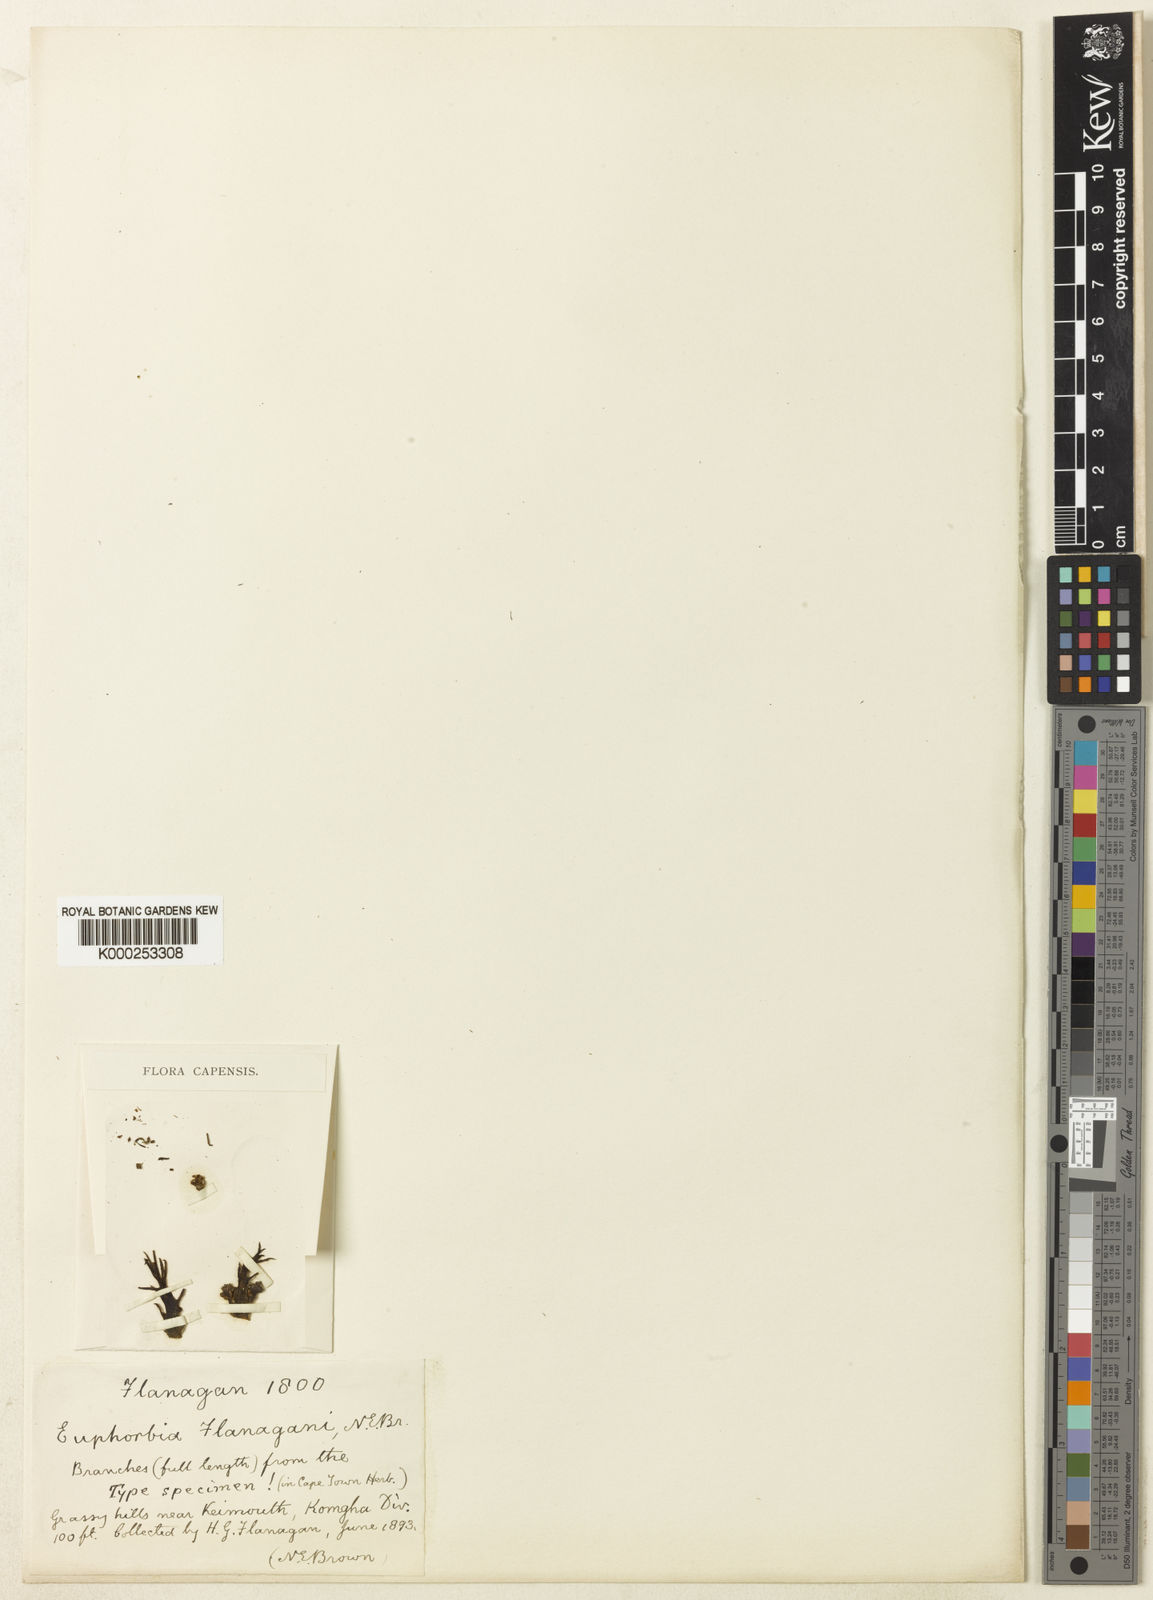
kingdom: Plantae
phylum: Tracheophyta
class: Magnoliopsida
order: Malpighiales
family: Euphorbiaceae
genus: Euphorbia
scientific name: Euphorbia flanaganii
